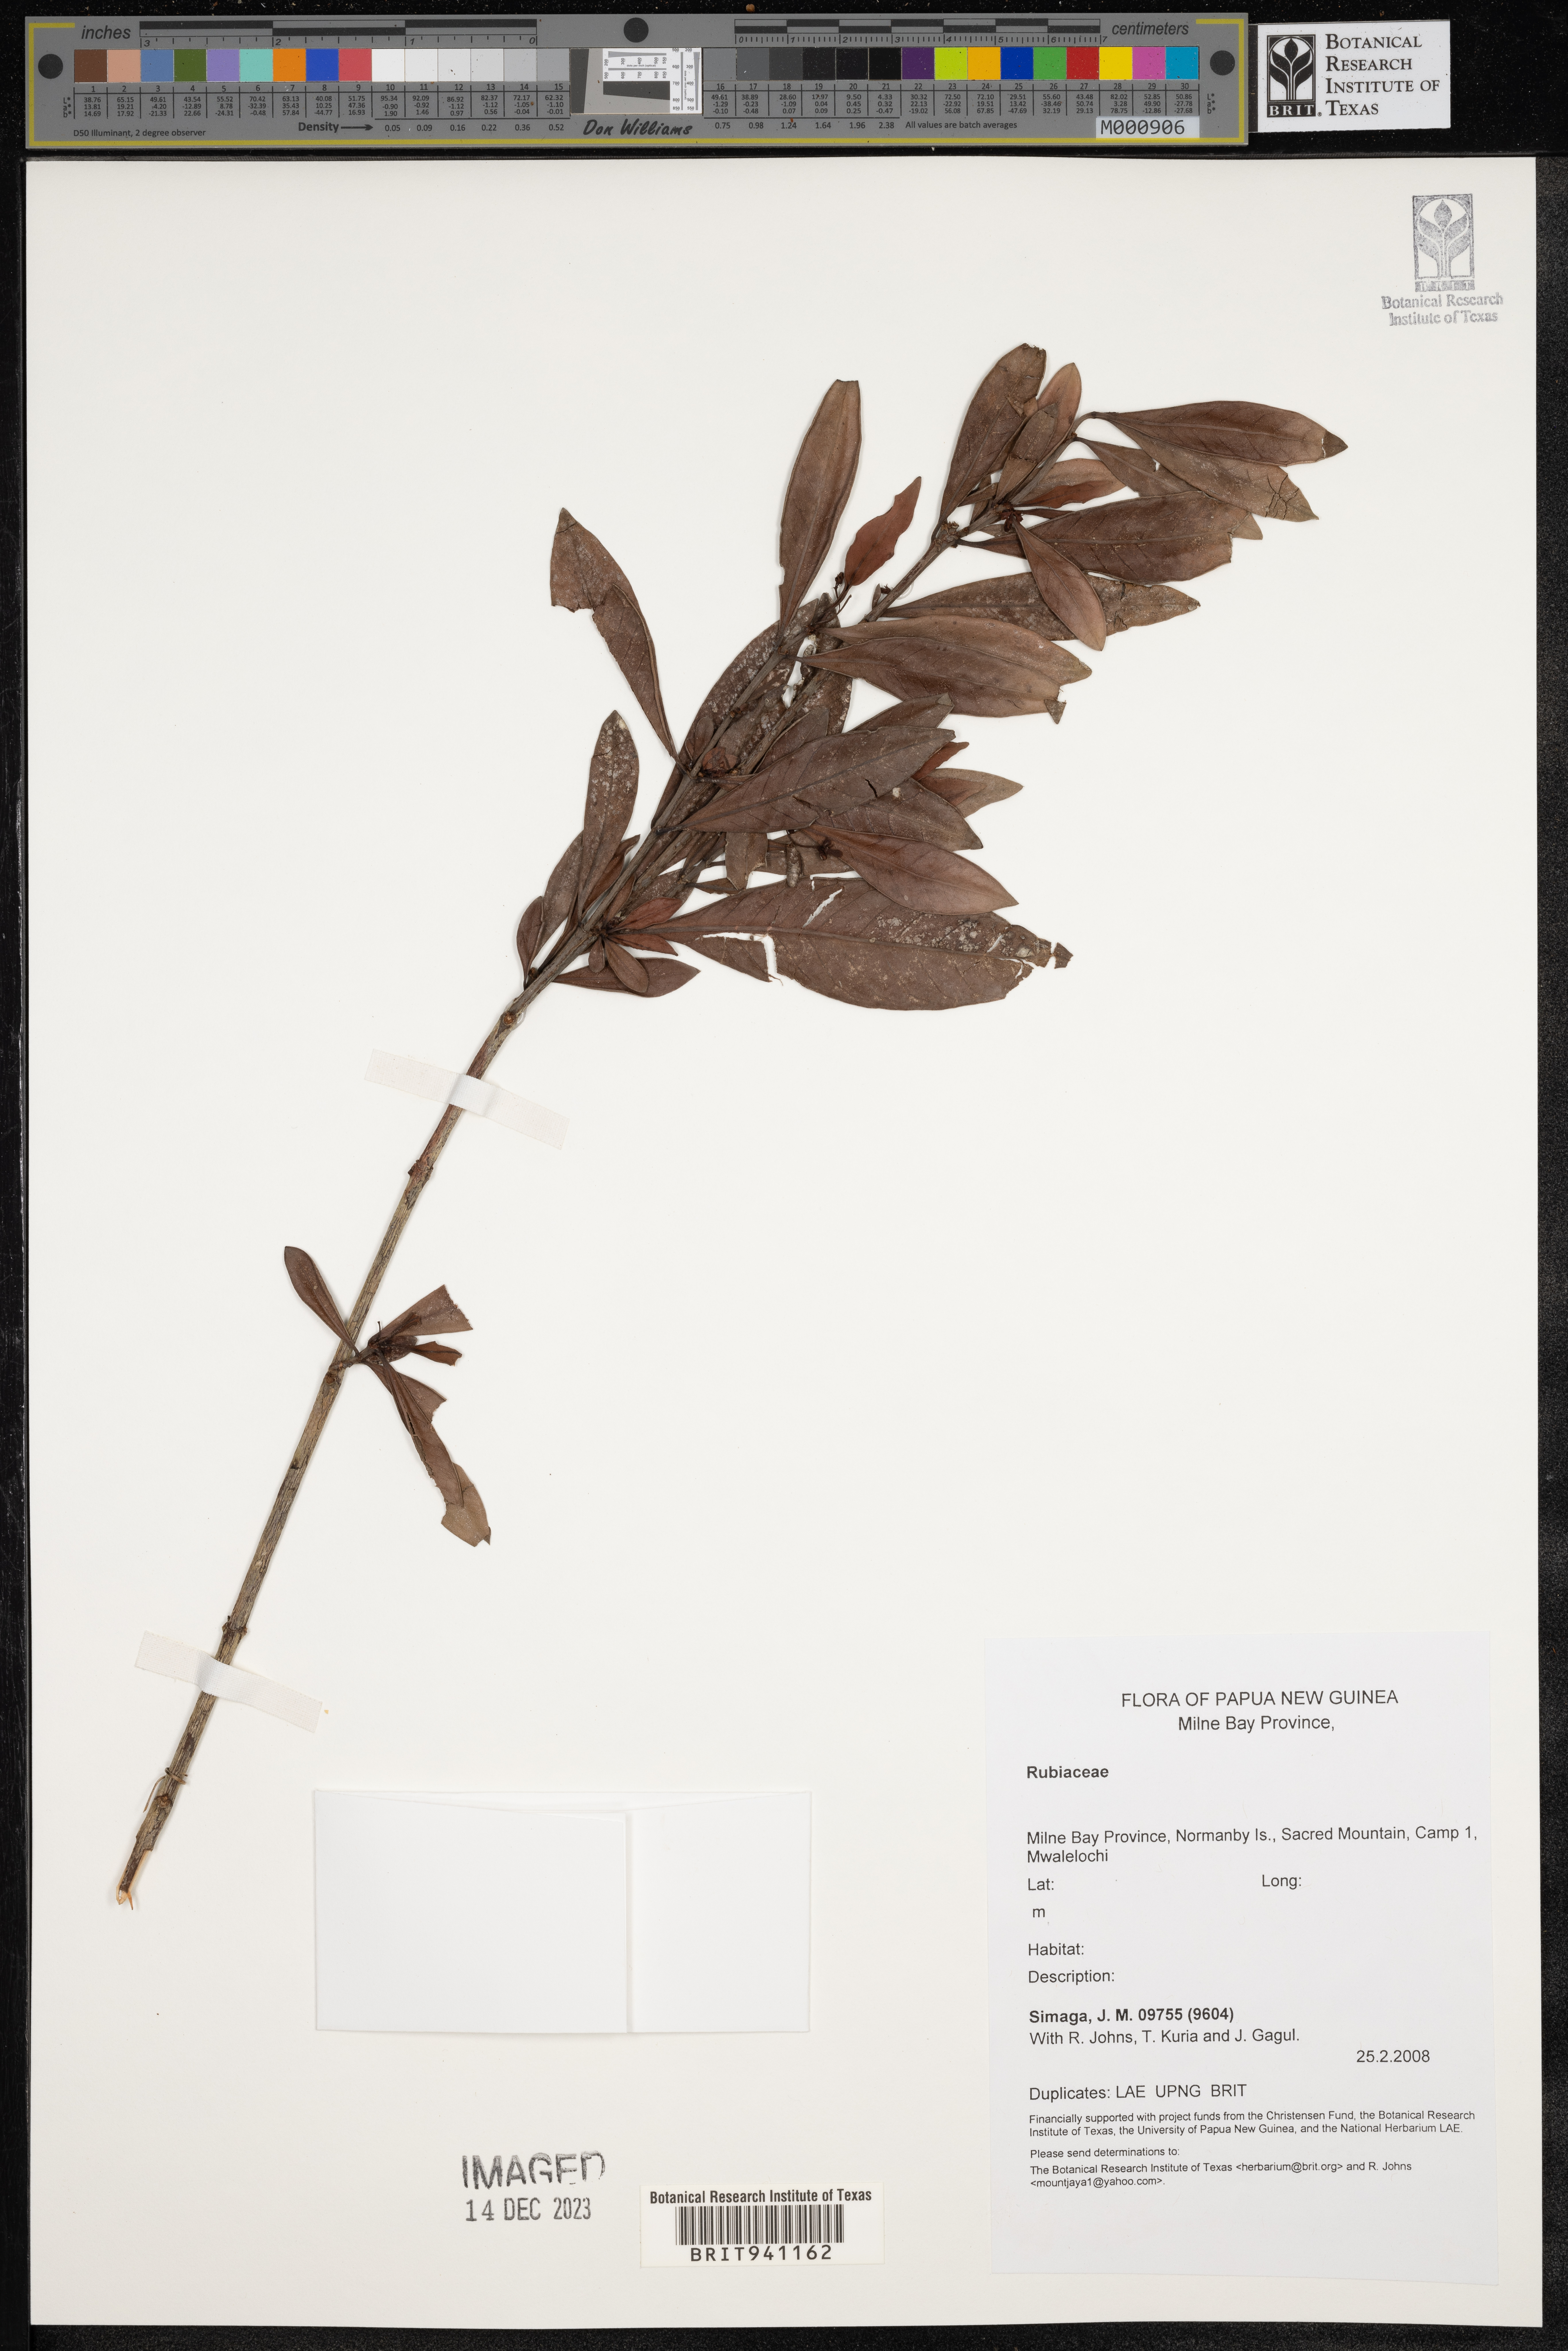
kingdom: Plantae
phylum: Tracheophyta
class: Magnoliopsida
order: Gentianales
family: Rubiaceae
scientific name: Rubiaceae
